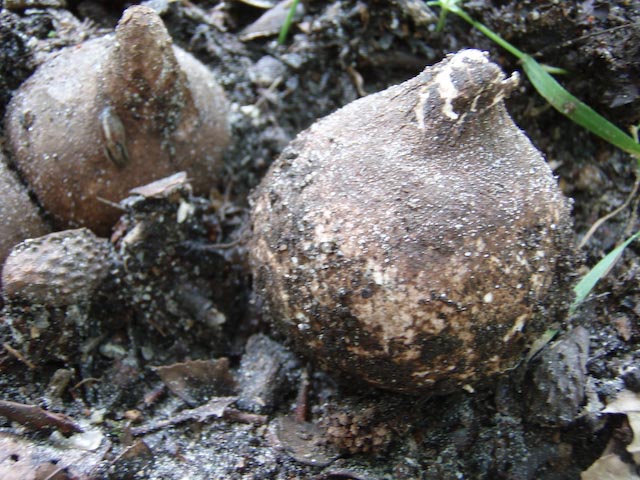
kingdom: Fungi
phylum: Basidiomycota
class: Agaricomycetes
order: Geastrales
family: Geastraceae
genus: Geastrum
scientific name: Geastrum michelianum
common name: kødet stjernebold
